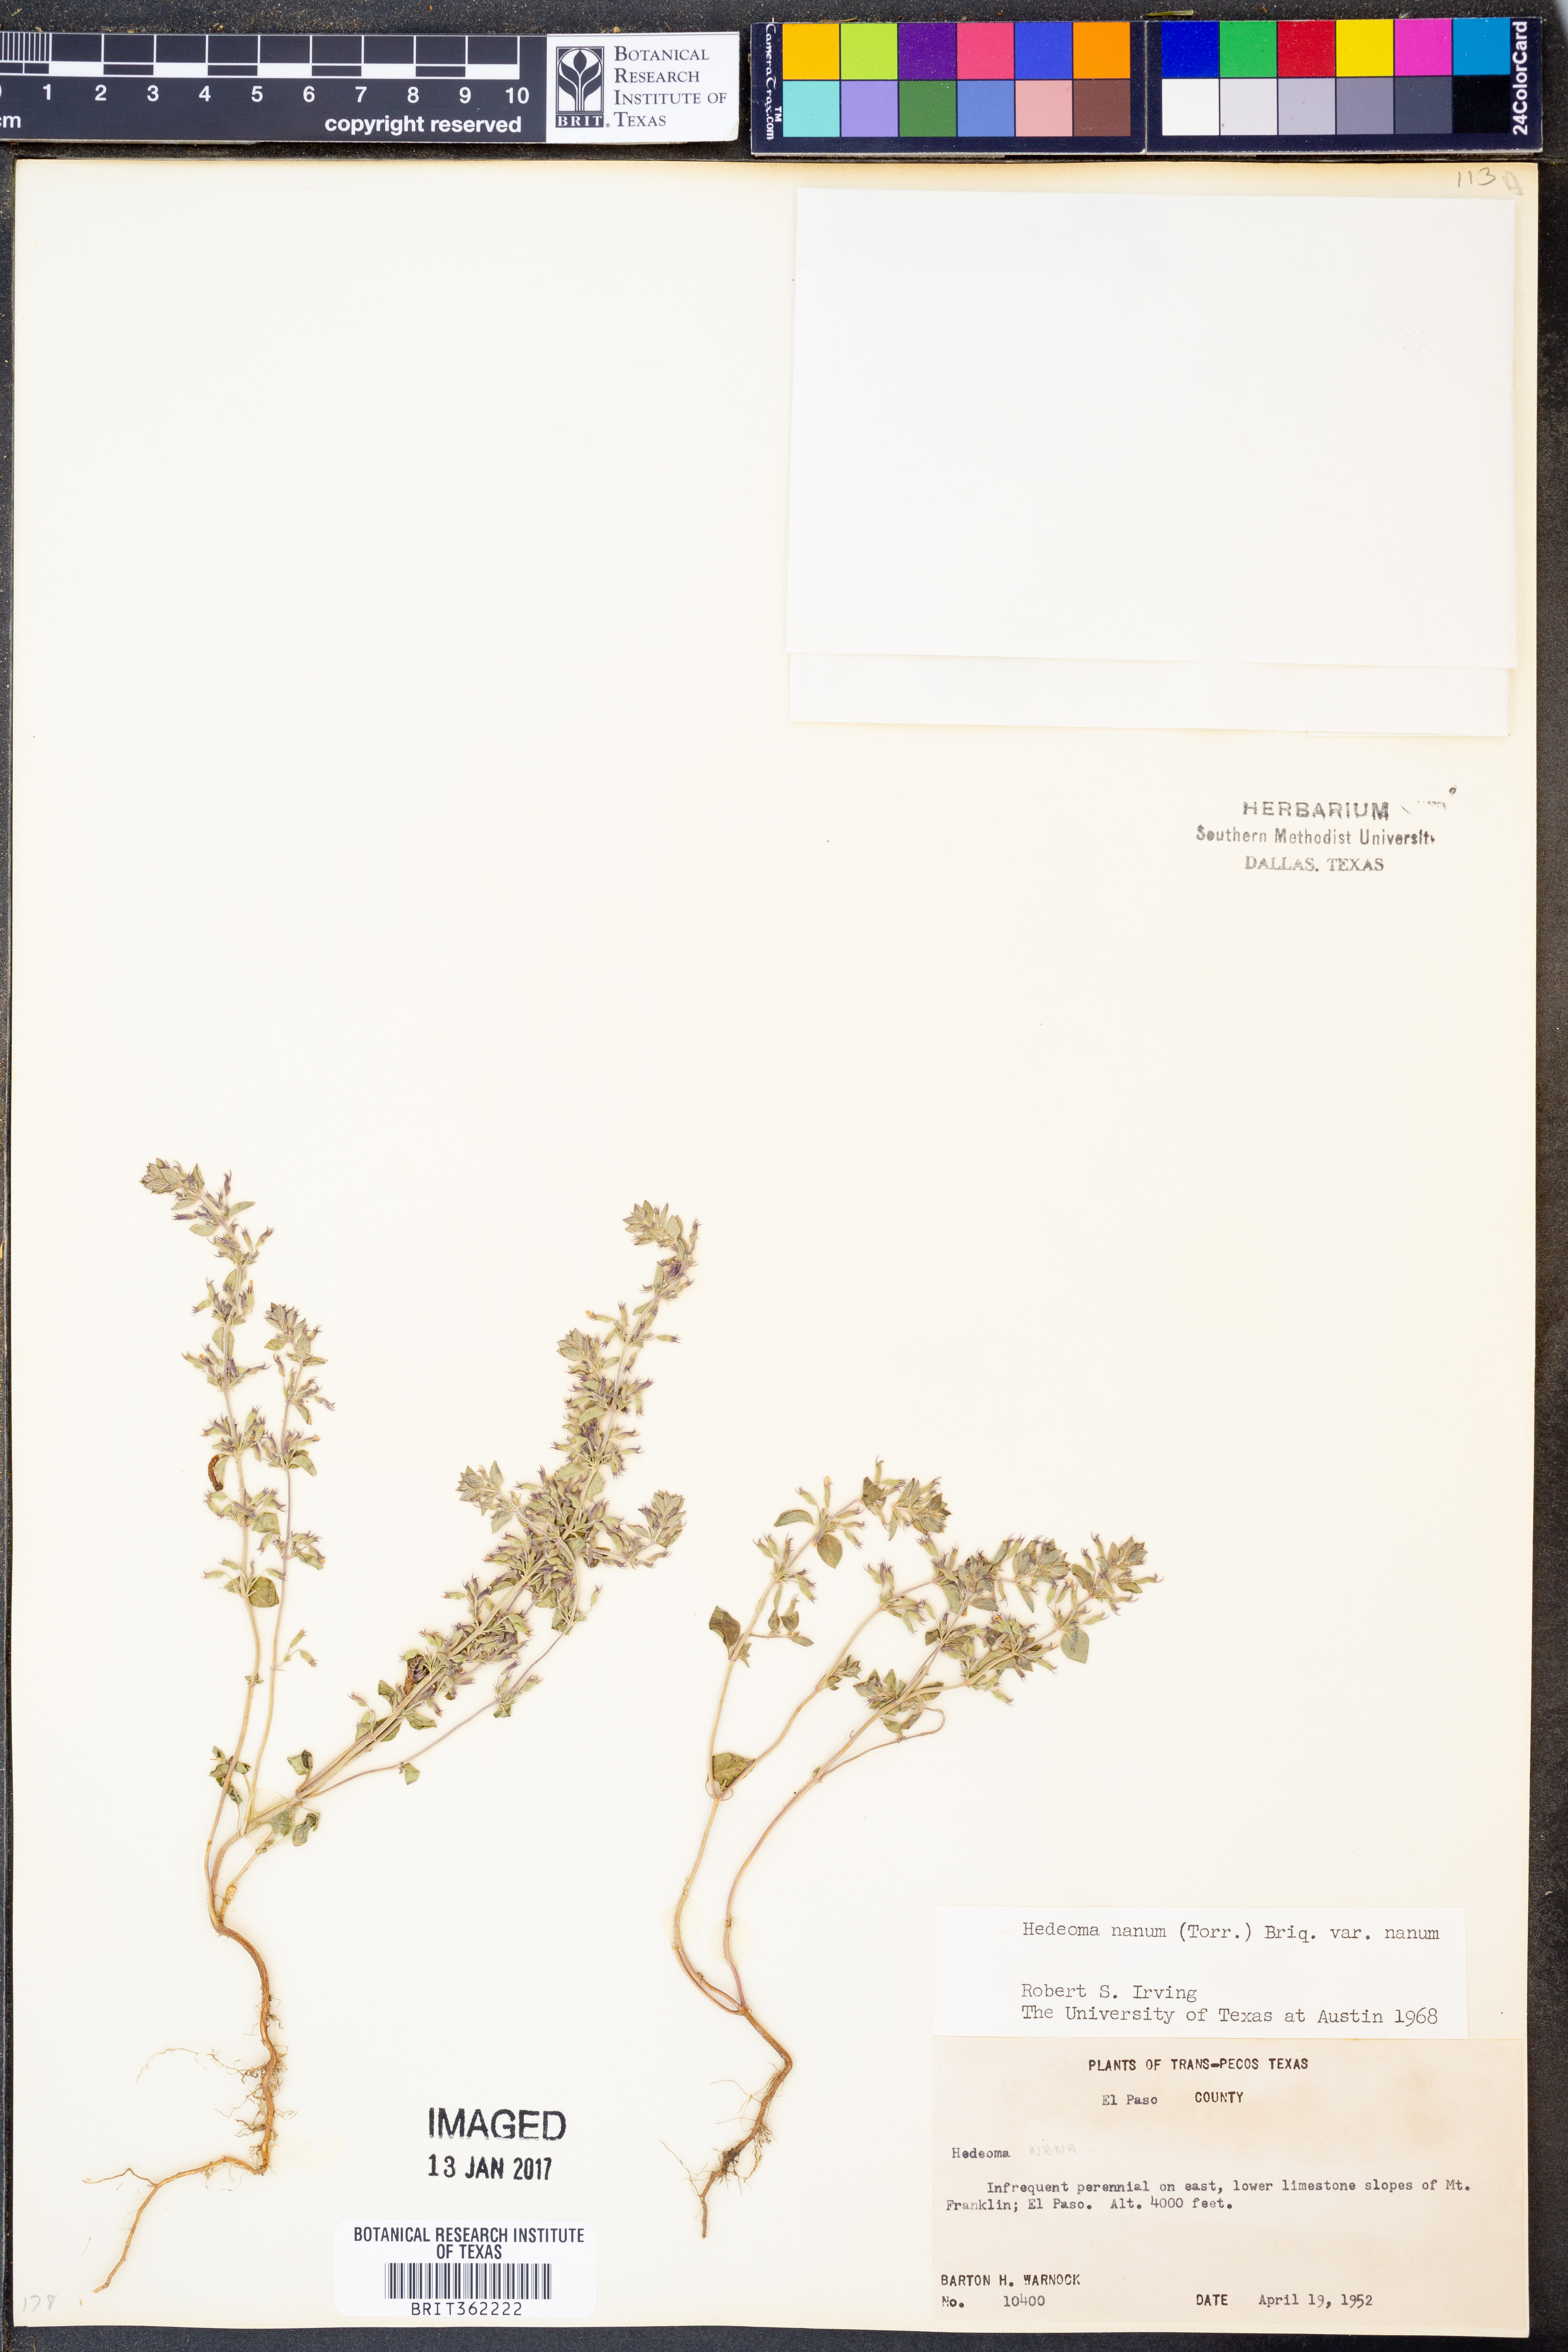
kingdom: Plantae
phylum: Tracheophyta
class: Magnoliopsida
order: Lamiales
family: Lamiaceae
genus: Hedeoma
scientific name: Hedeoma nana
